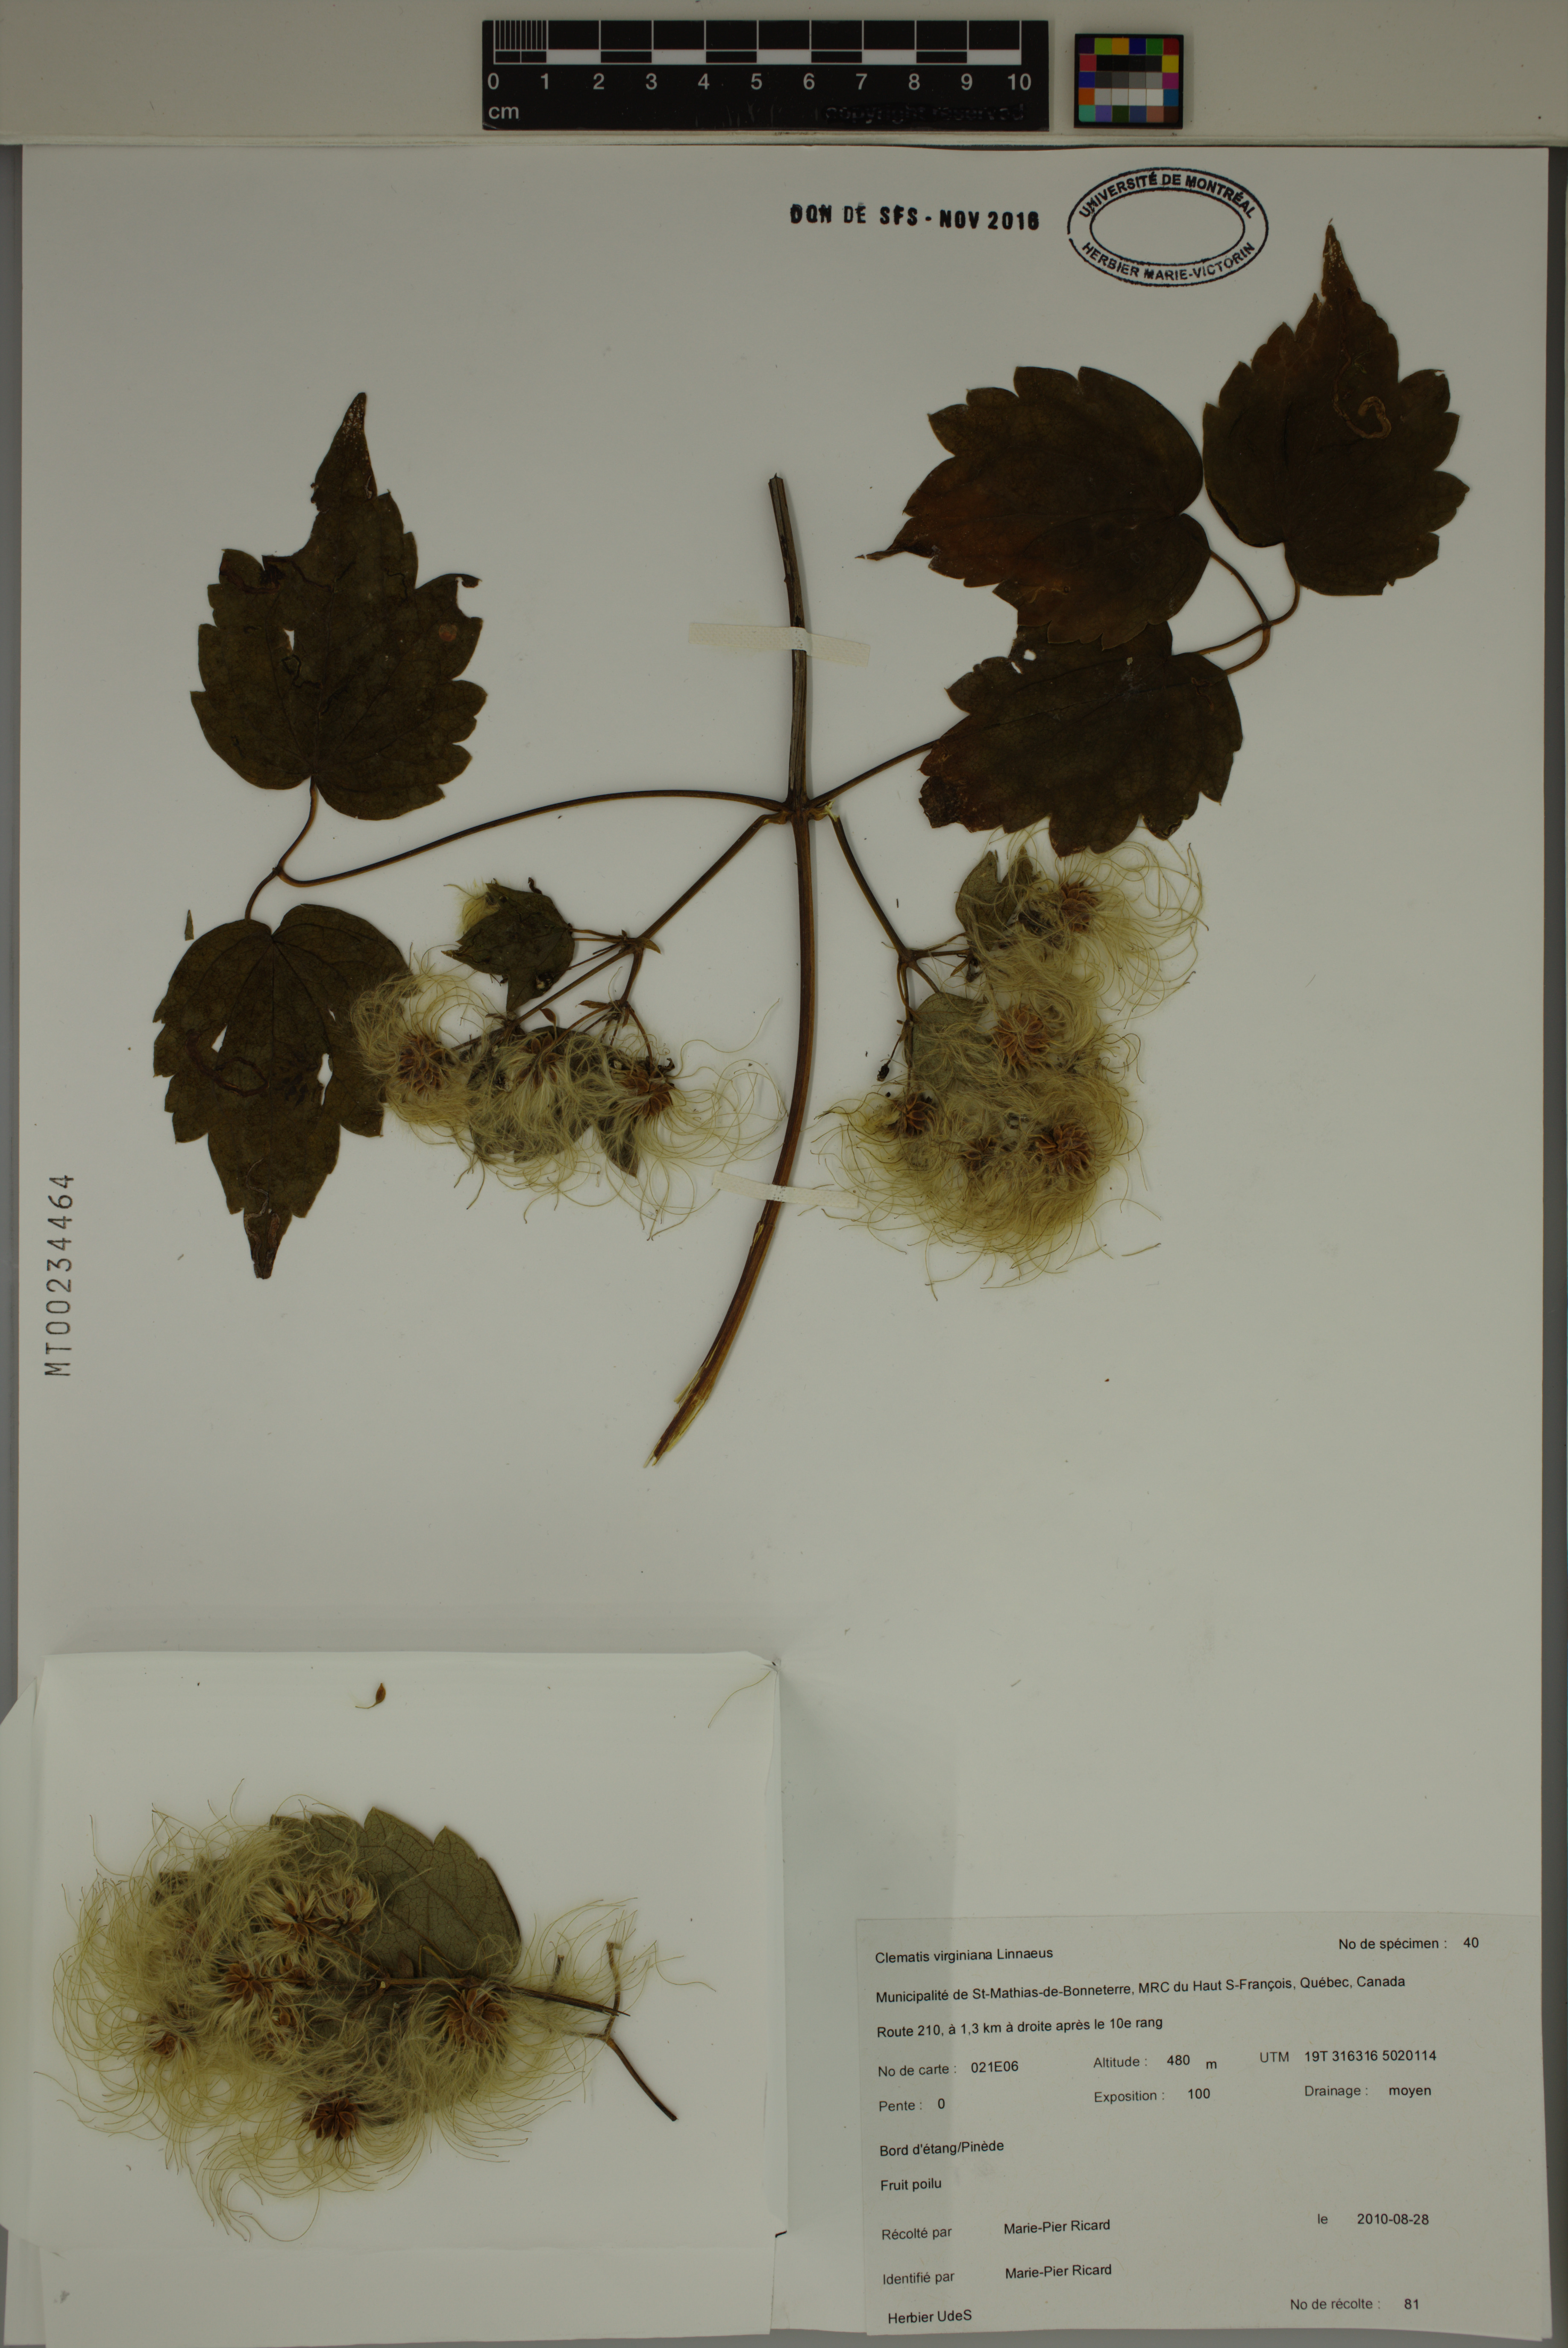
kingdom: Plantae
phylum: Tracheophyta
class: Magnoliopsida
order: Ranunculales
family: Ranunculaceae
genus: Clematis
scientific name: Clematis virginiana
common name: Virgin's-bower
